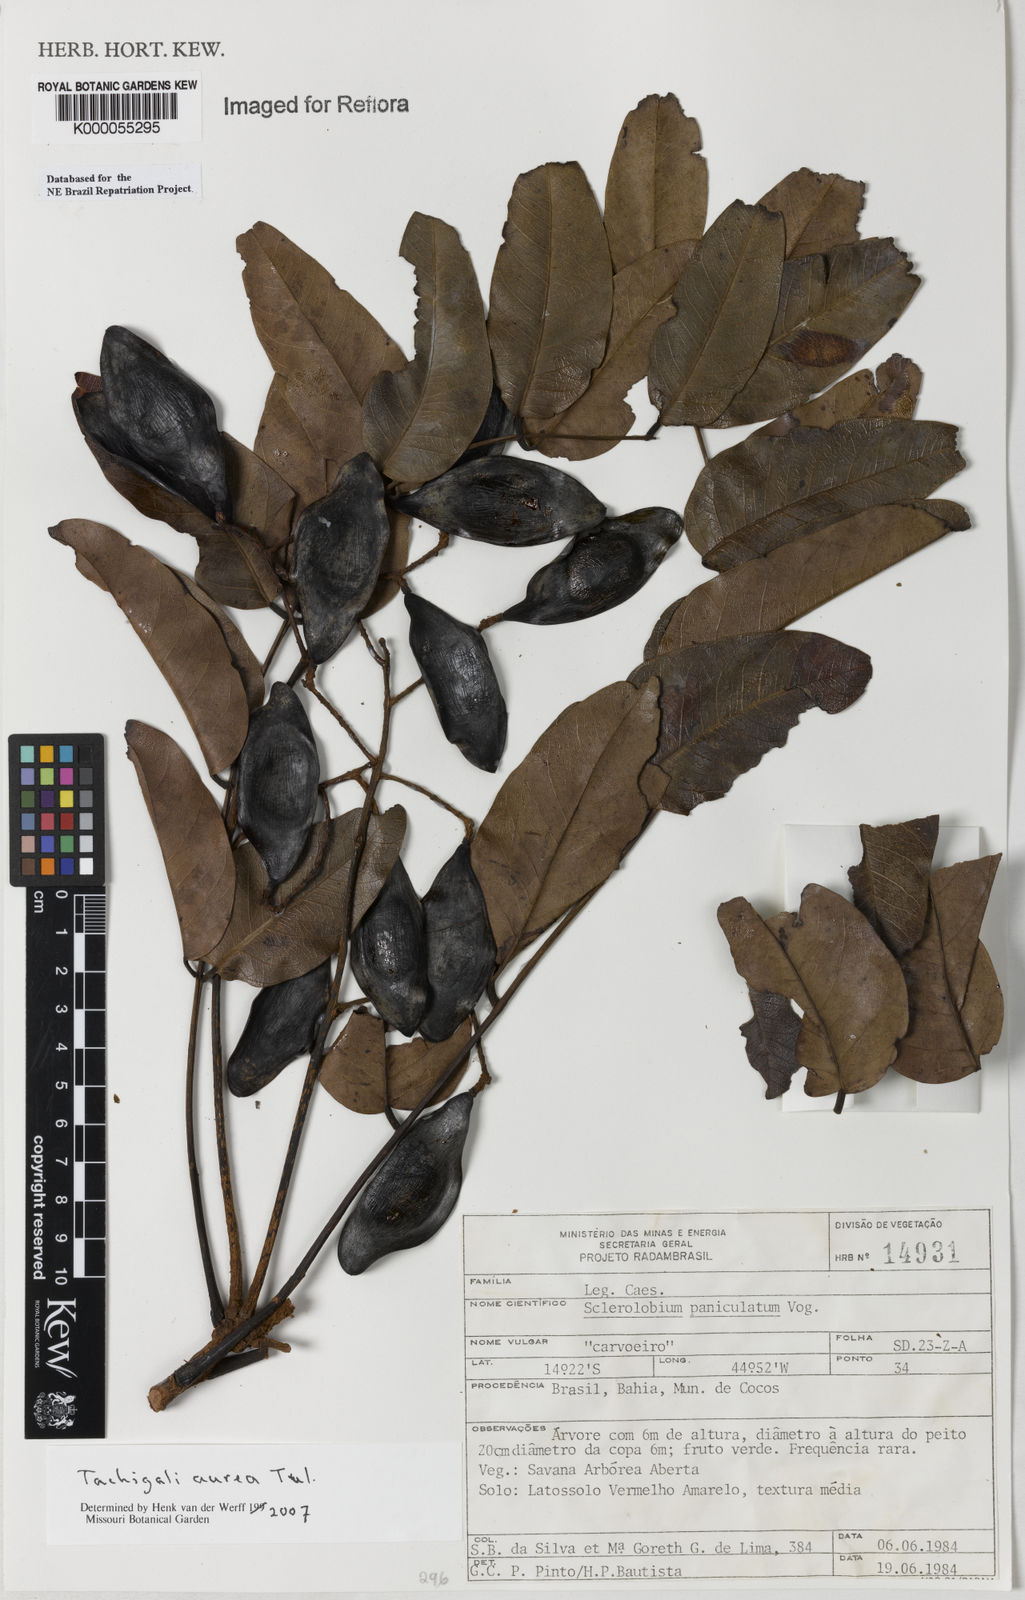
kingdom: Plantae
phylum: Tracheophyta
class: Magnoliopsida
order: Fabales
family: Fabaceae
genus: Tachigali
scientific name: Tachigali vulgaris
